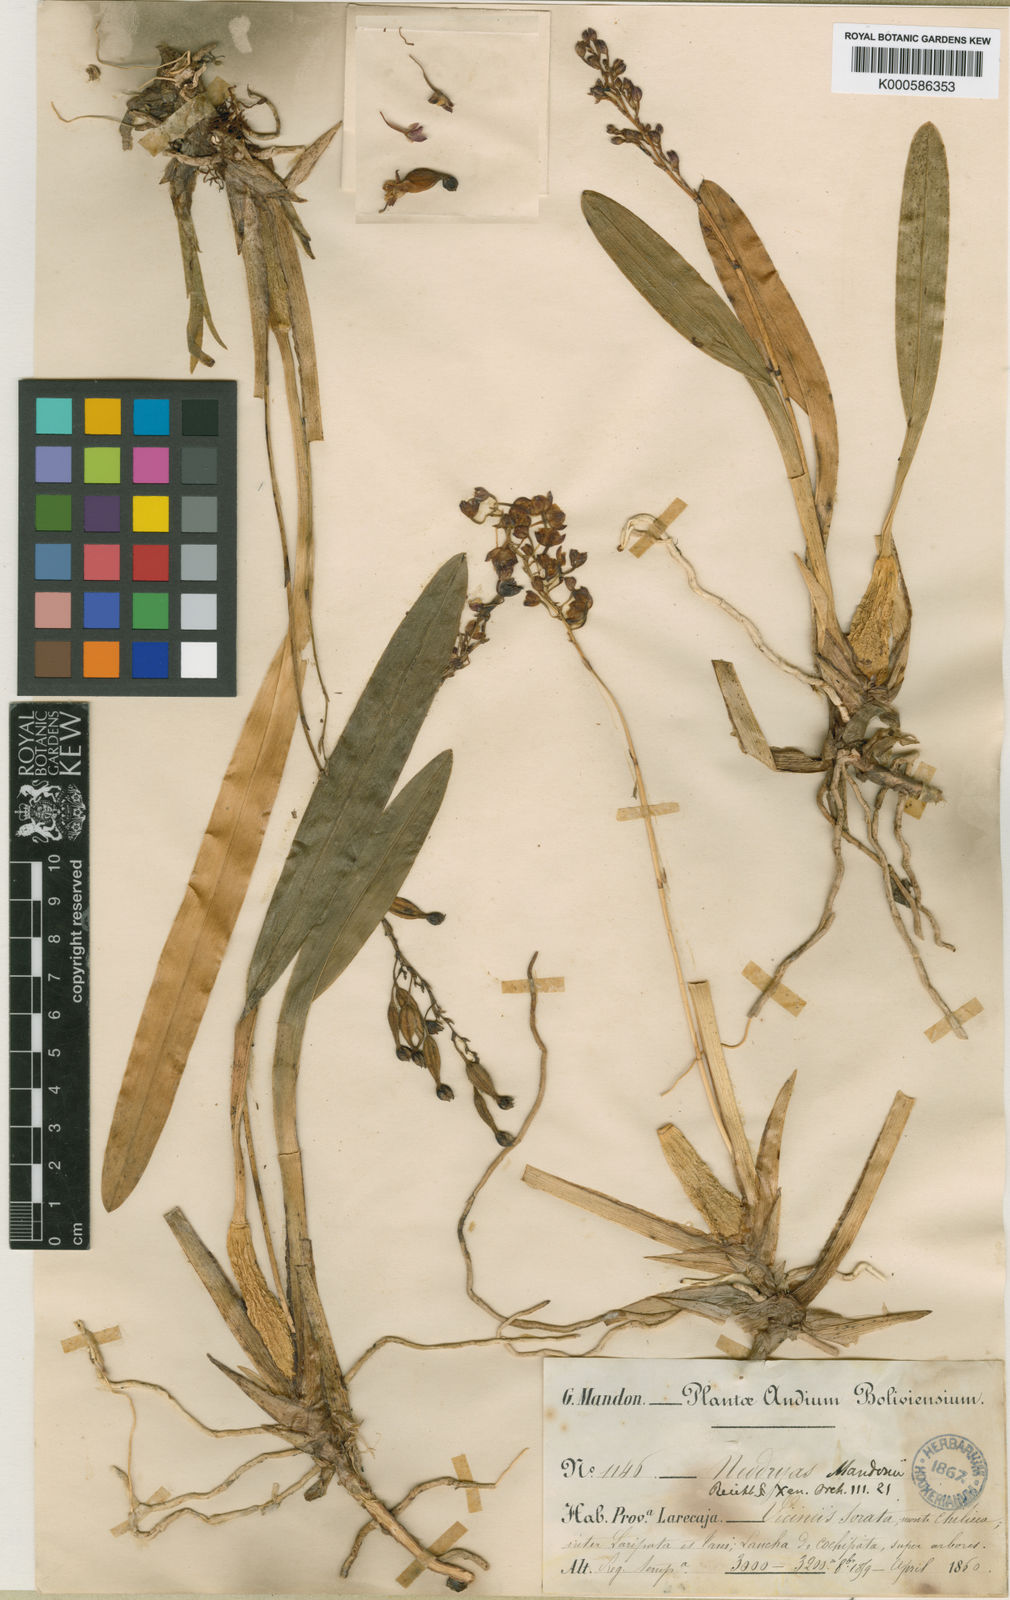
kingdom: Plantae
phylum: Tracheophyta
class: Liliopsida
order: Asparagales
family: Orchidaceae
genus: Cyrtochilum
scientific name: Cyrtochilum rhodoneurum
